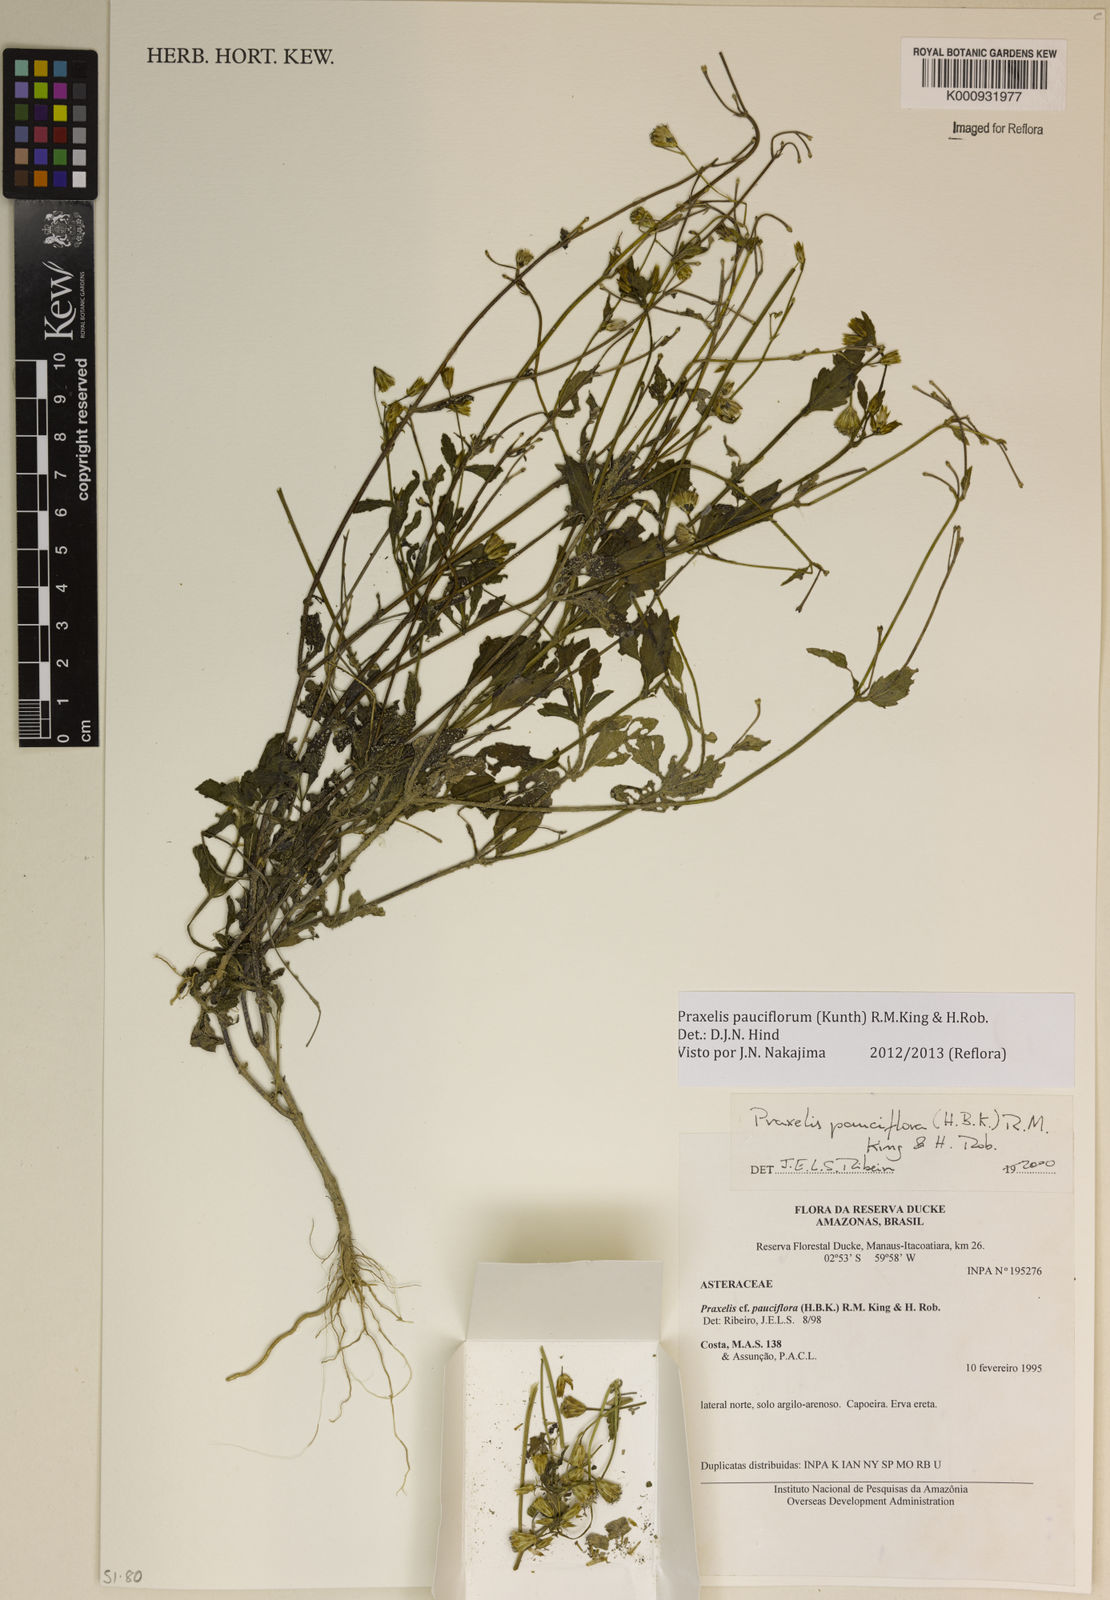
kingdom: Plantae
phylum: Tracheophyta
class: Magnoliopsida
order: Asterales
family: Asteraceae
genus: Praxelis
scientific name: Praxelis diffusa
